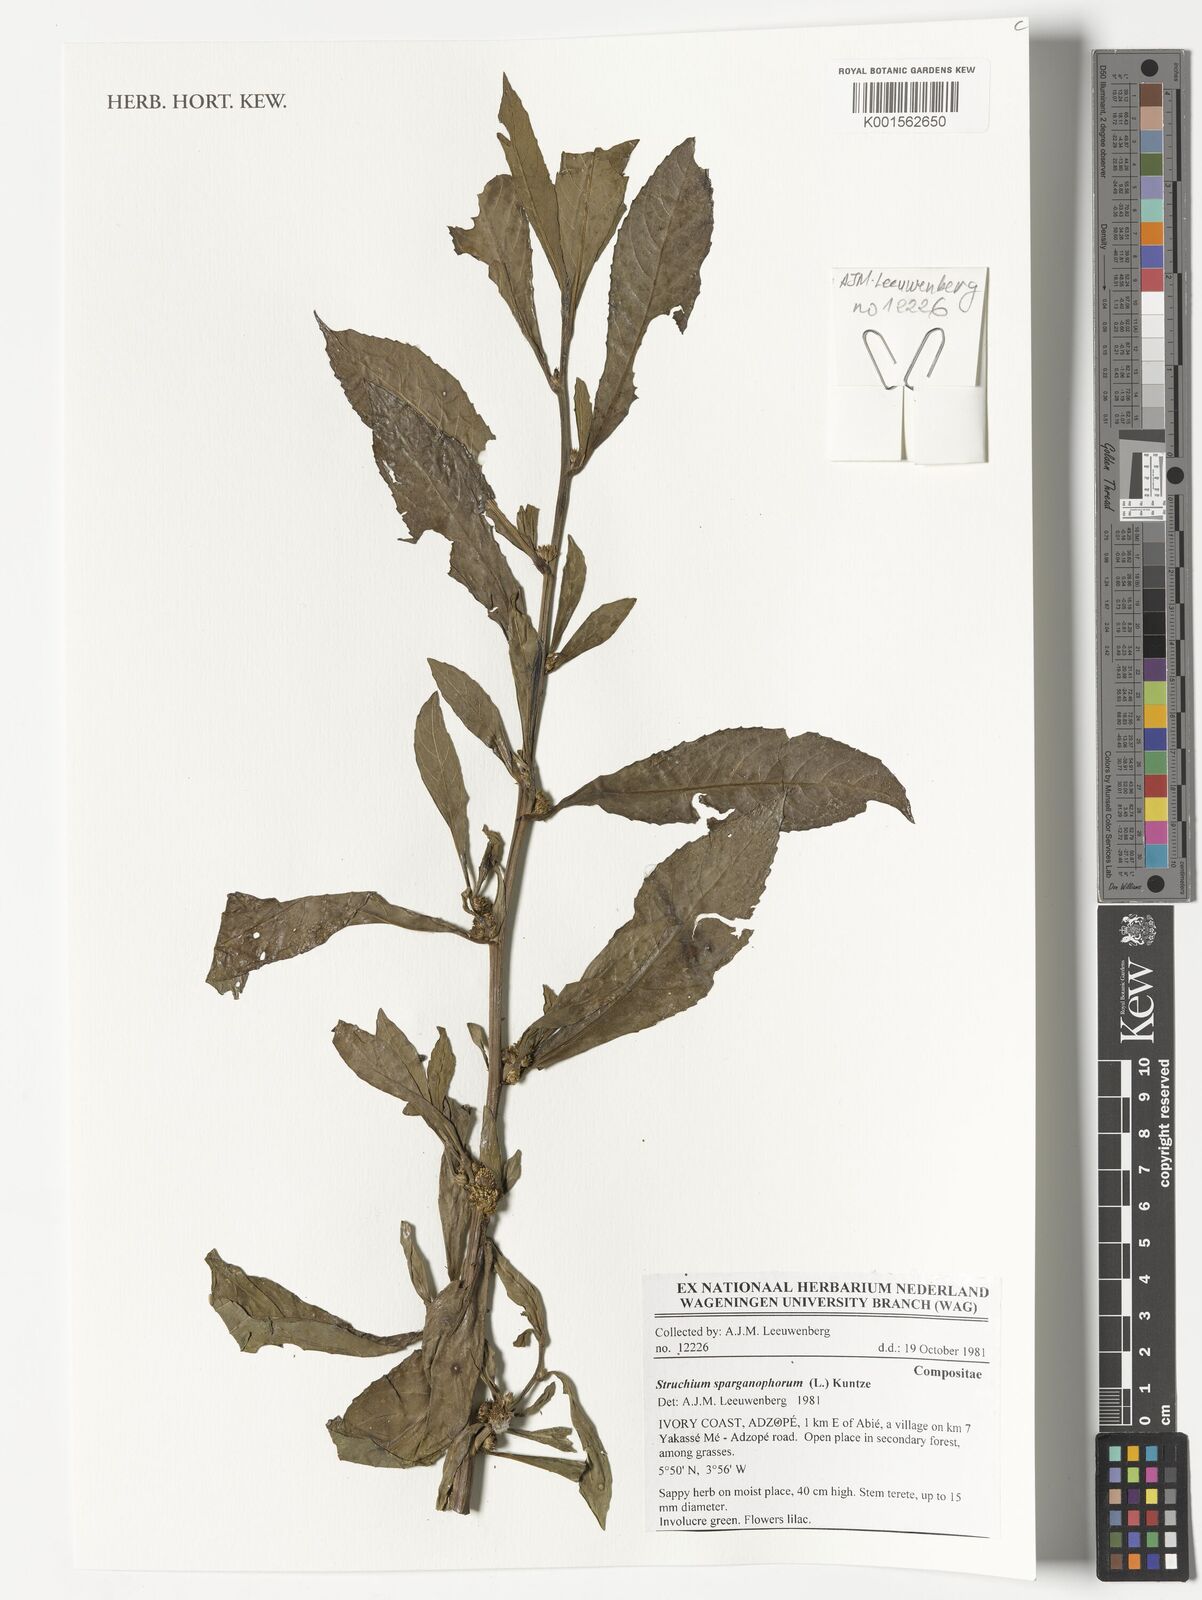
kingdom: Plantae
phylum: Tracheophyta
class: Magnoliopsida
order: Asterales
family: Asteraceae
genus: Struchium
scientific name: Struchium sparganophorum
